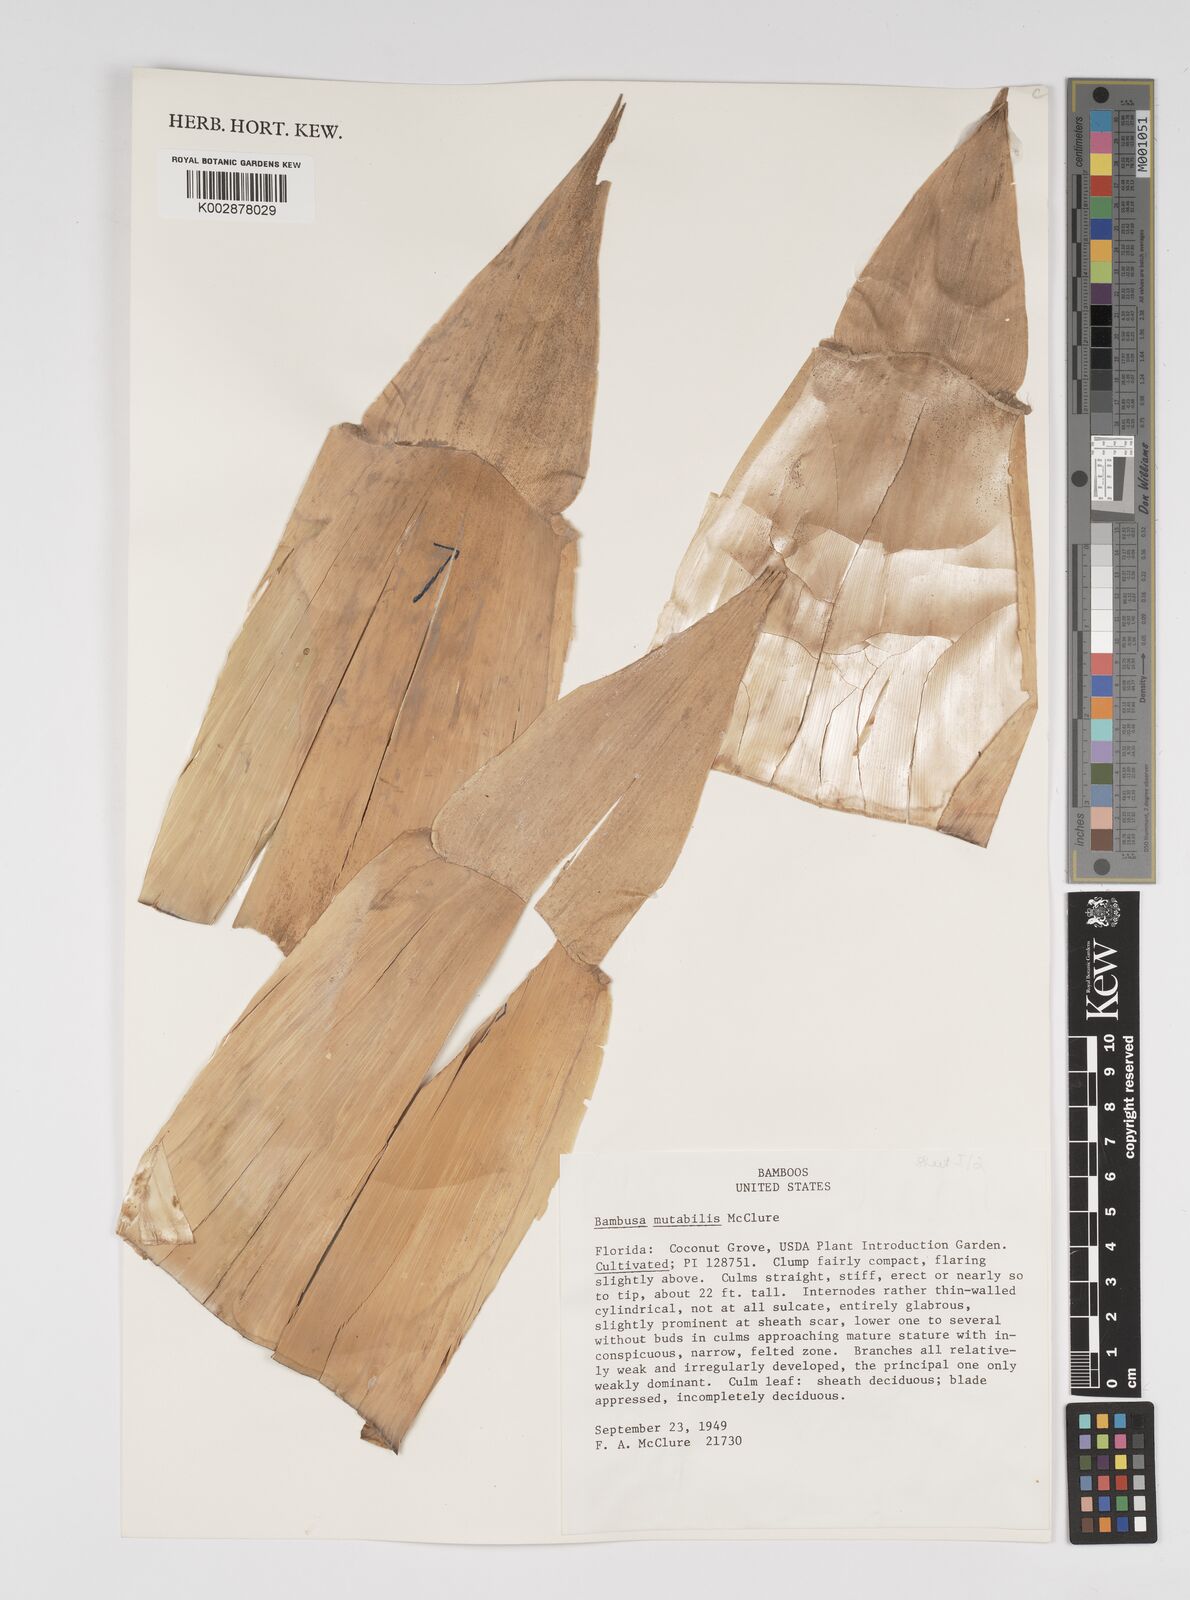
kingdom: Plantae
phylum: Tracheophyta
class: Liliopsida
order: Poales
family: Poaceae
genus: Bambusa
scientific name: Bambusa mutabilis
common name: Lesser yellow bamboo
